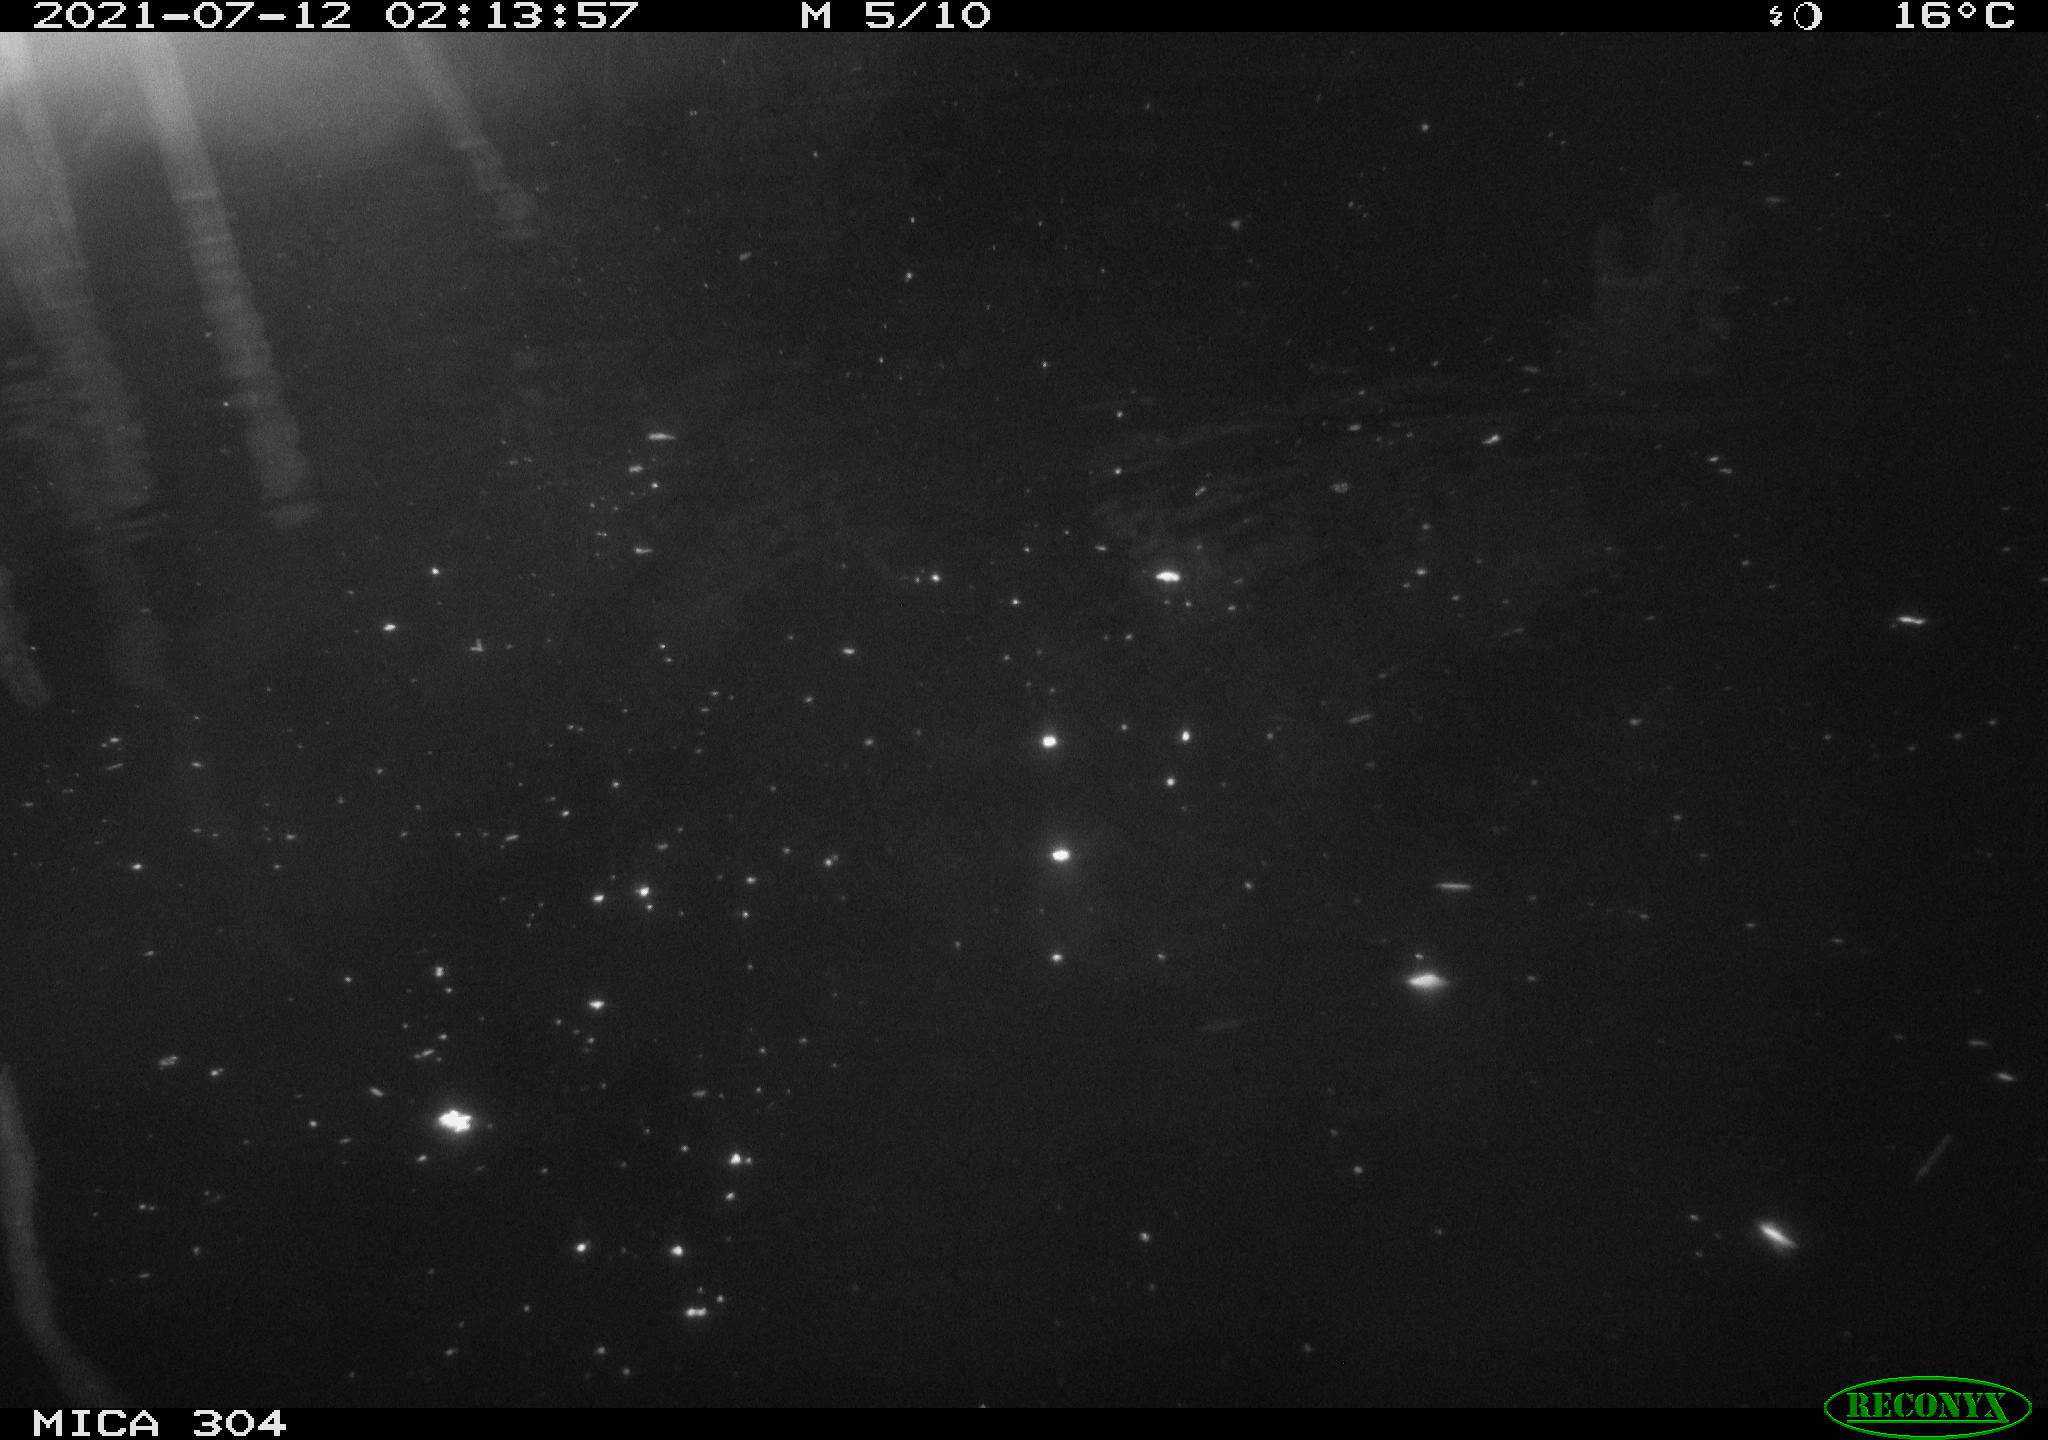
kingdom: Animalia
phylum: Chordata
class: Mammalia
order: Rodentia
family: Muridae
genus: Rattus
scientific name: Rattus norvegicus
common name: Brown rat
